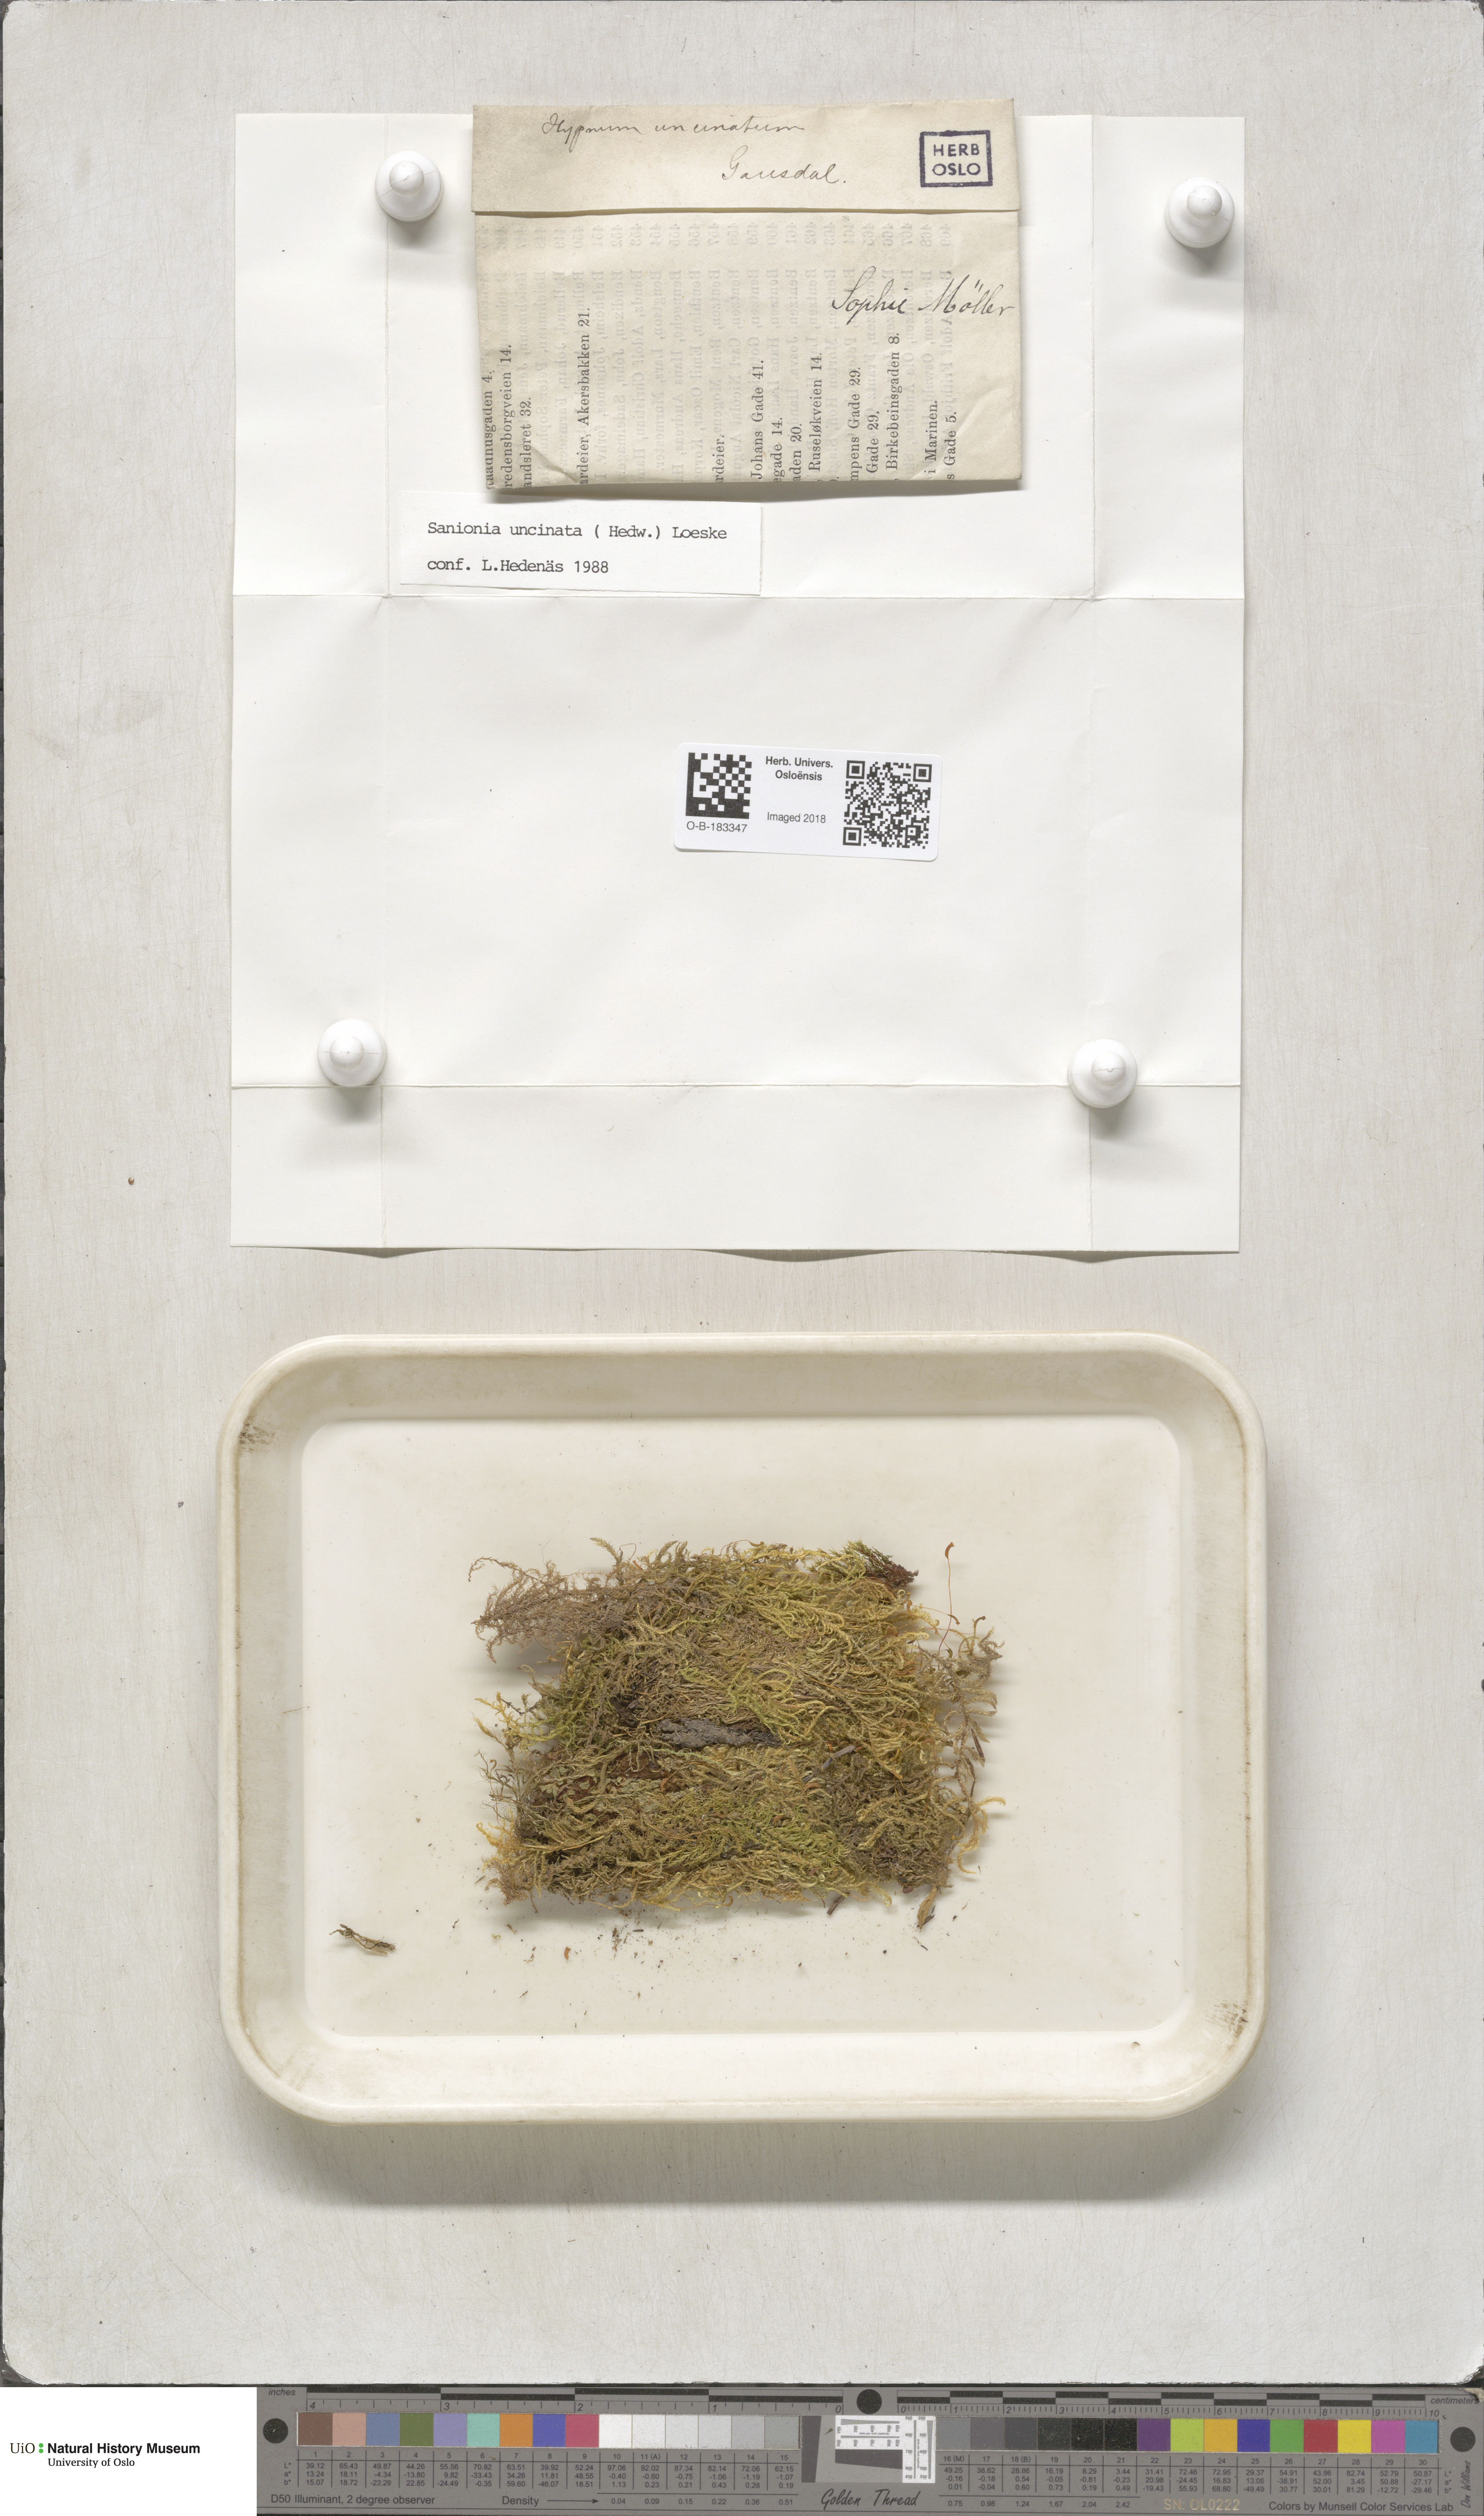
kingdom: Plantae
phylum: Bryophyta
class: Bryopsida
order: Hypnales
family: Scorpidiaceae
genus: Sanionia
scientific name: Sanionia uncinata
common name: Sickle moss
